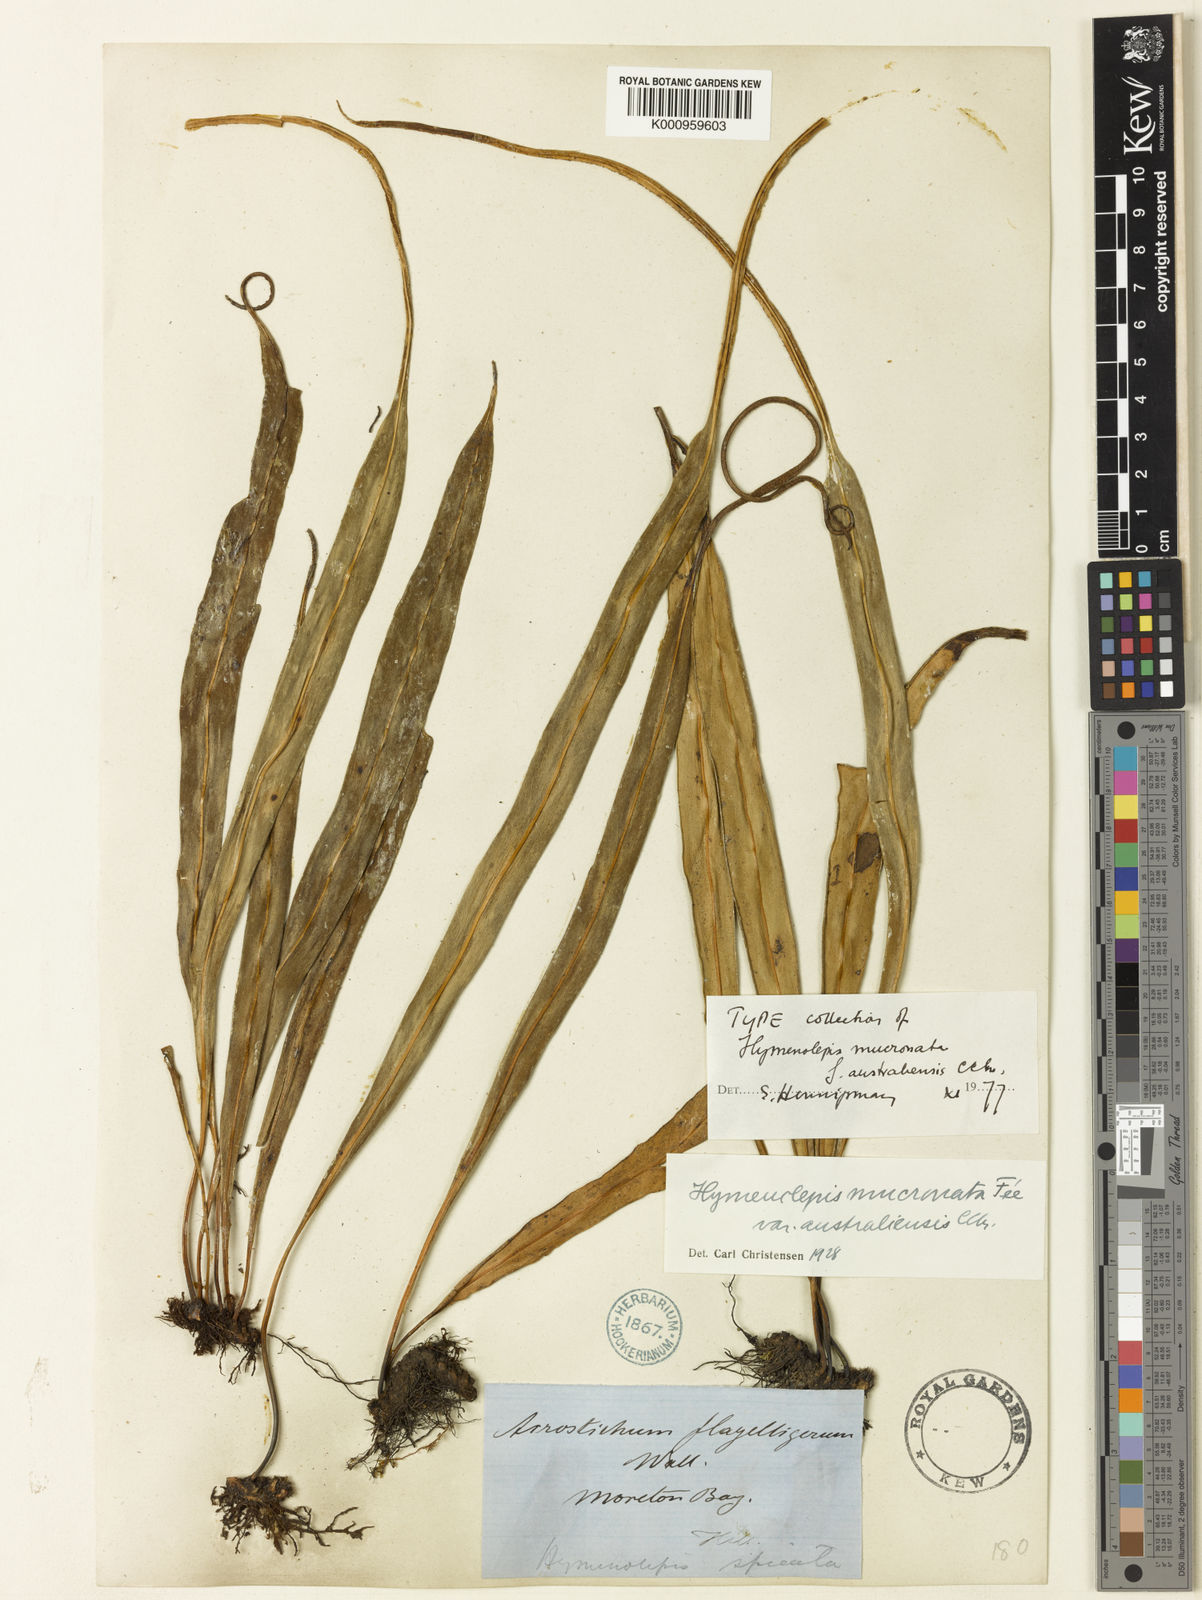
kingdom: Plantae
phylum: Tracheophyta
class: Polypodiopsida
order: Polypodiales
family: Polypodiaceae
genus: Lepisorus
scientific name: Lepisorus mucronatus
